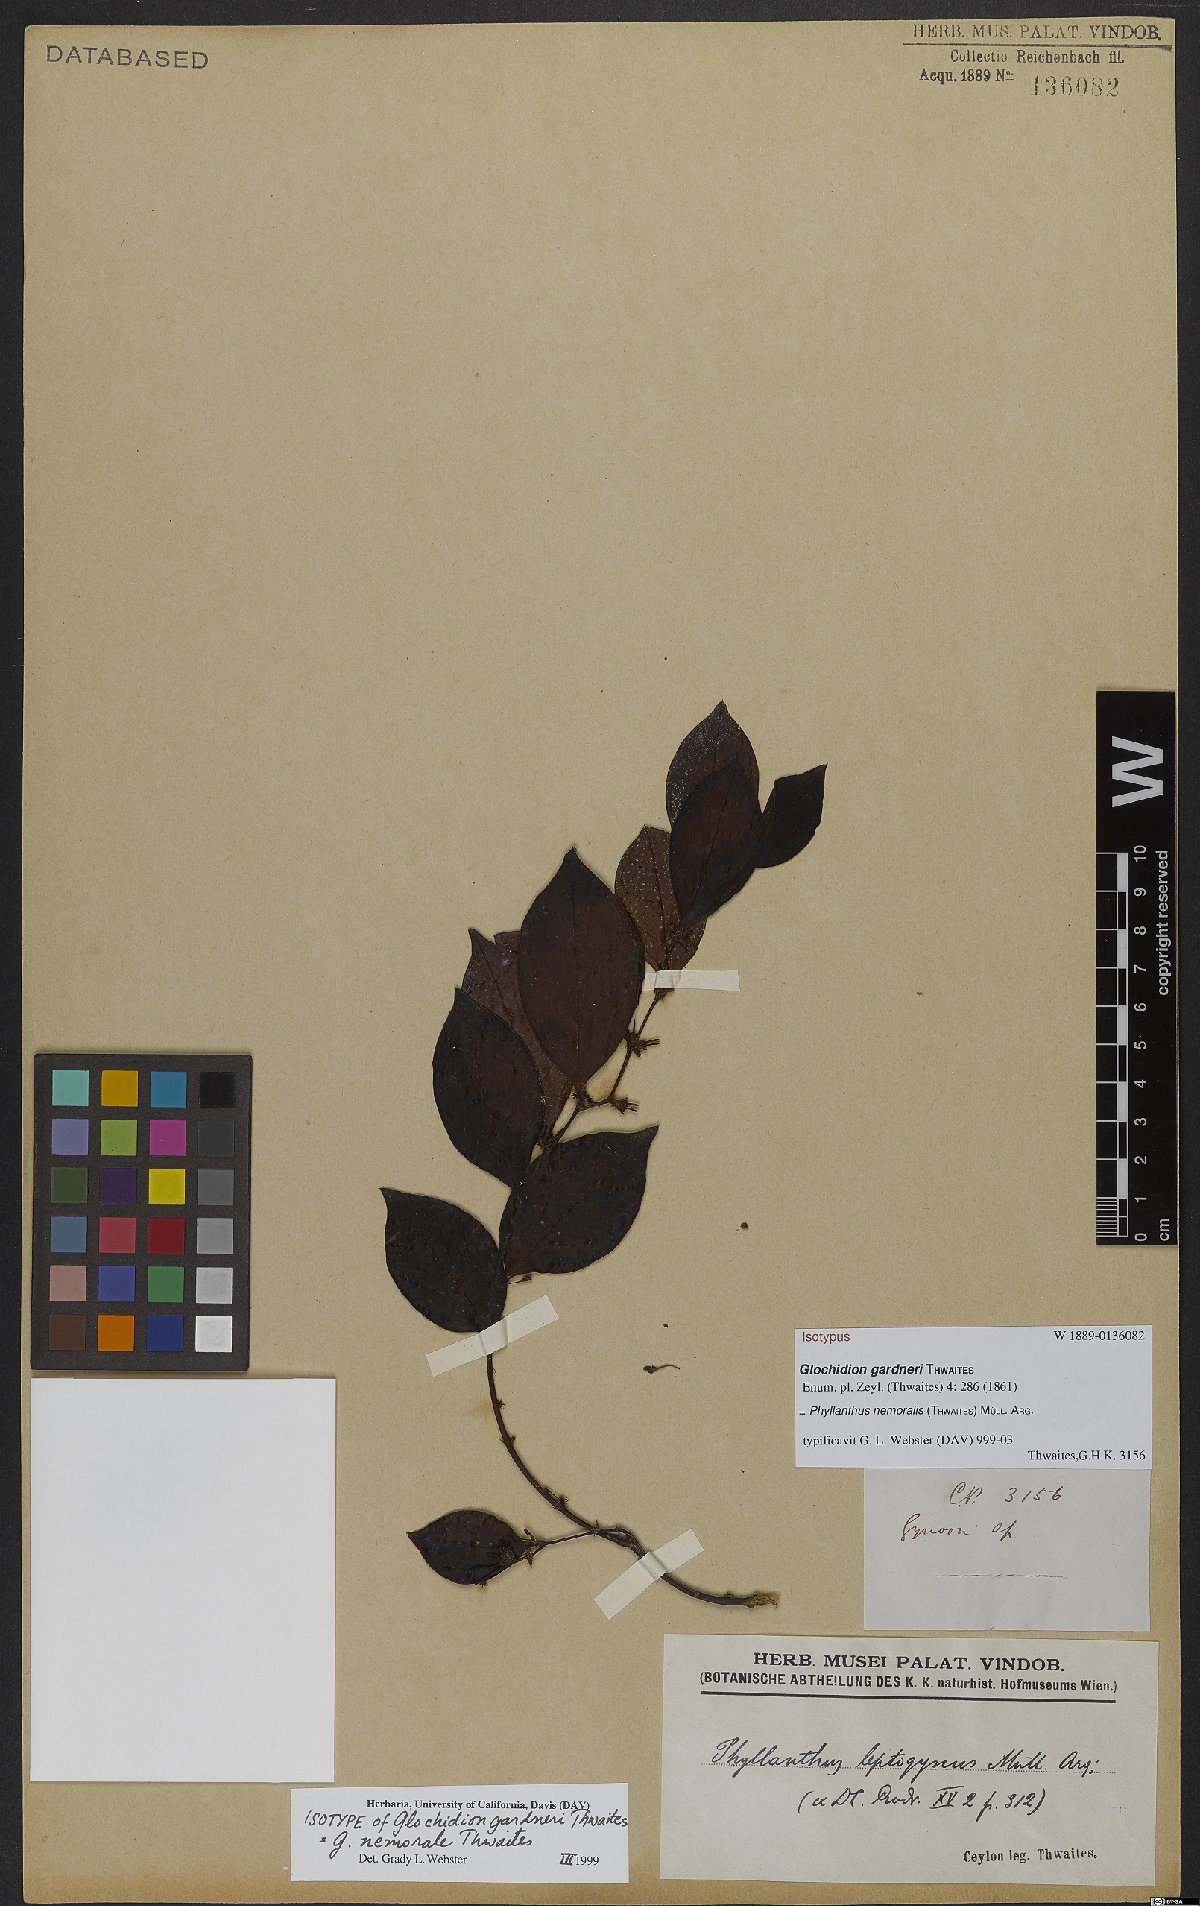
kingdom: Plantae
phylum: Tracheophyta
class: Magnoliopsida
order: Malpighiales
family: Phyllanthaceae
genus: Glochidion
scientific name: Glochidion nemorale
